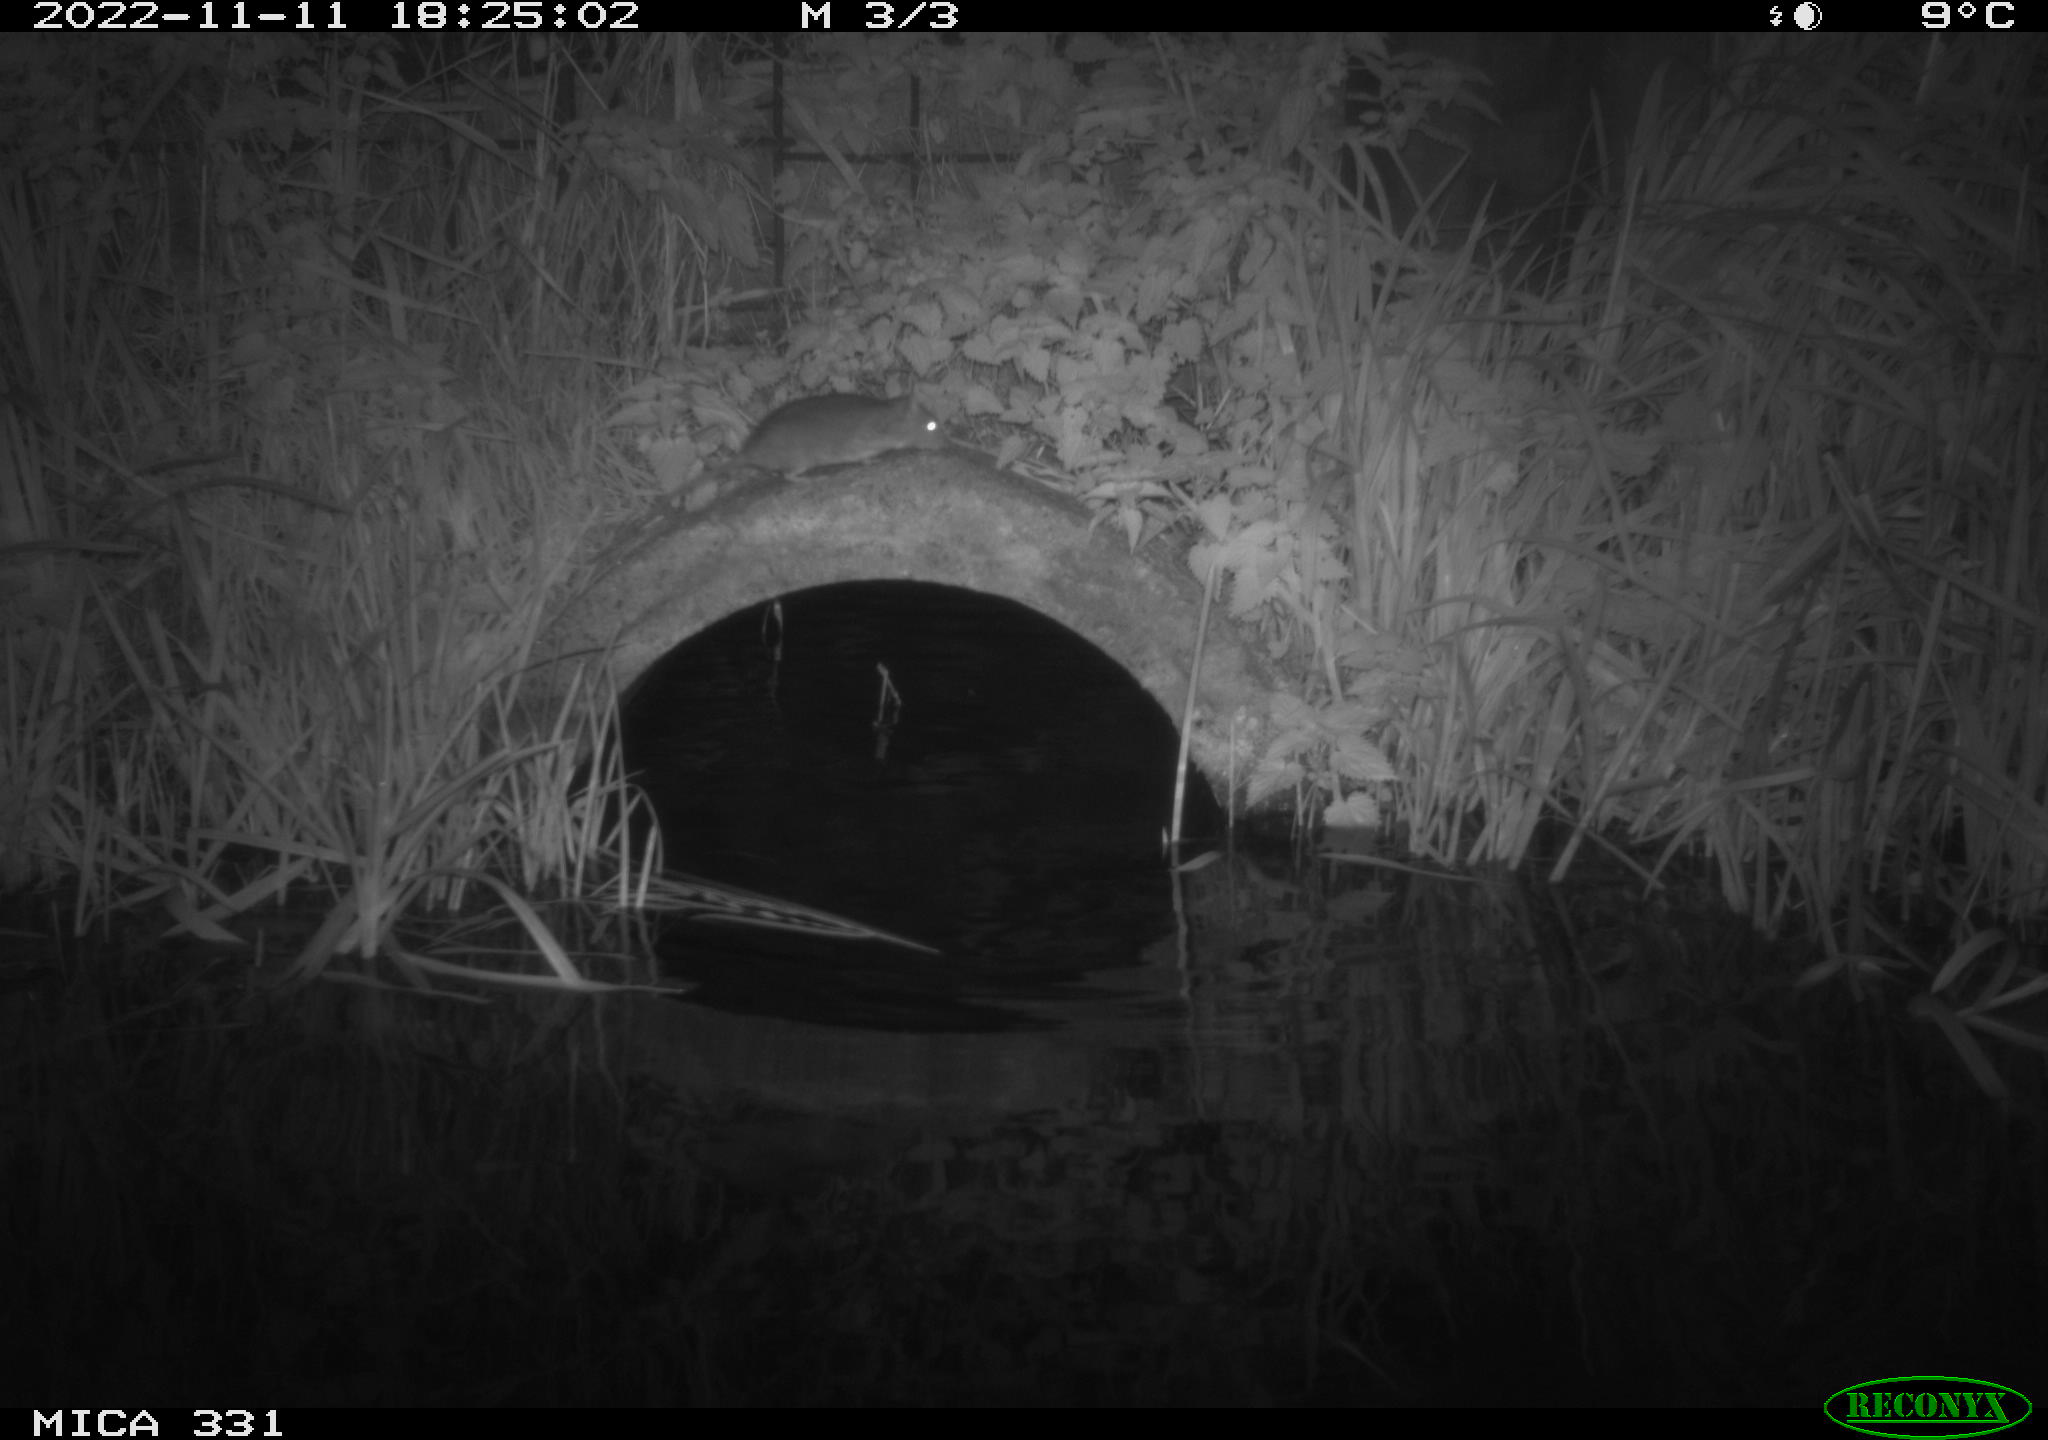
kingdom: Animalia
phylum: Chordata
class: Mammalia
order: Rodentia
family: Muridae
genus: Rattus
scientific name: Rattus norvegicus
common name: Brown rat
